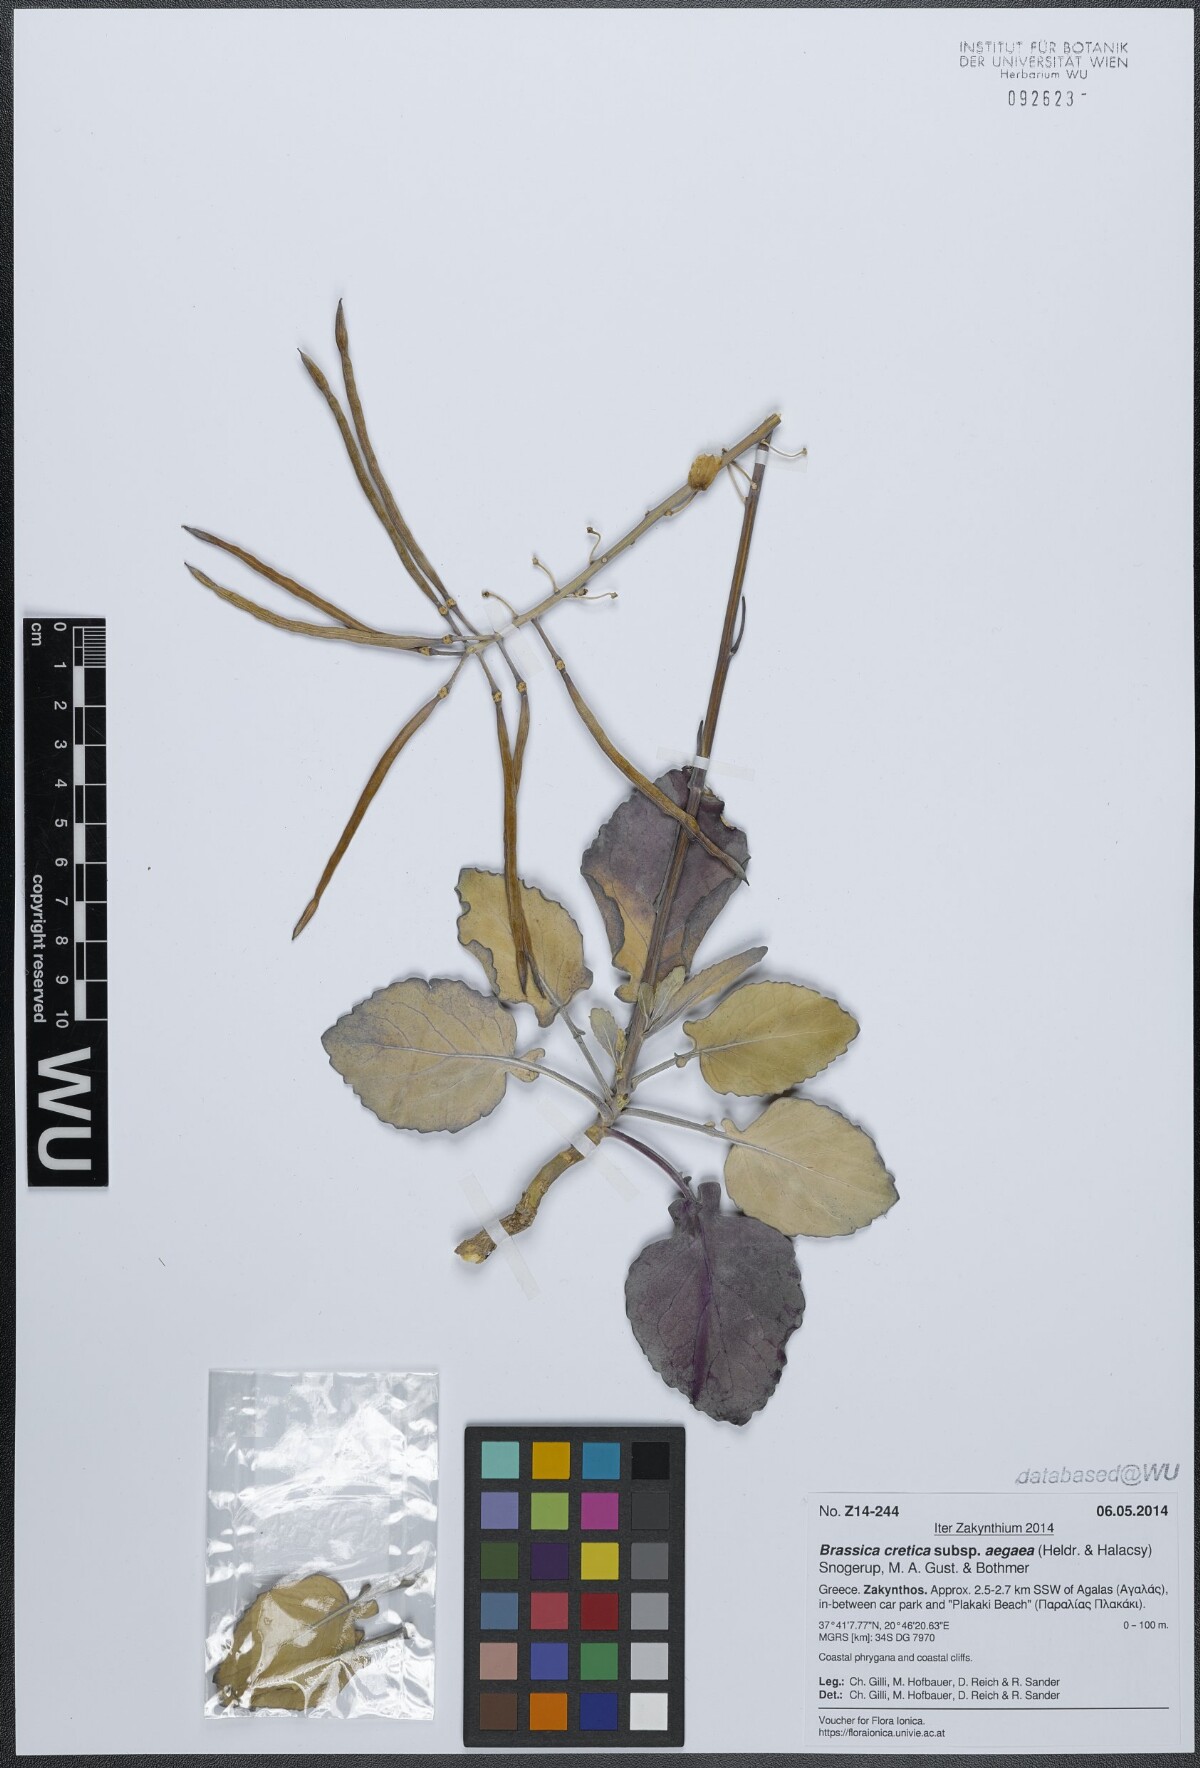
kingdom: Plantae
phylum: Tracheophyta
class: Magnoliopsida
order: Brassicales
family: Brassicaceae
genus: Brassica
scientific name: Brassica cretica
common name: Mustard
